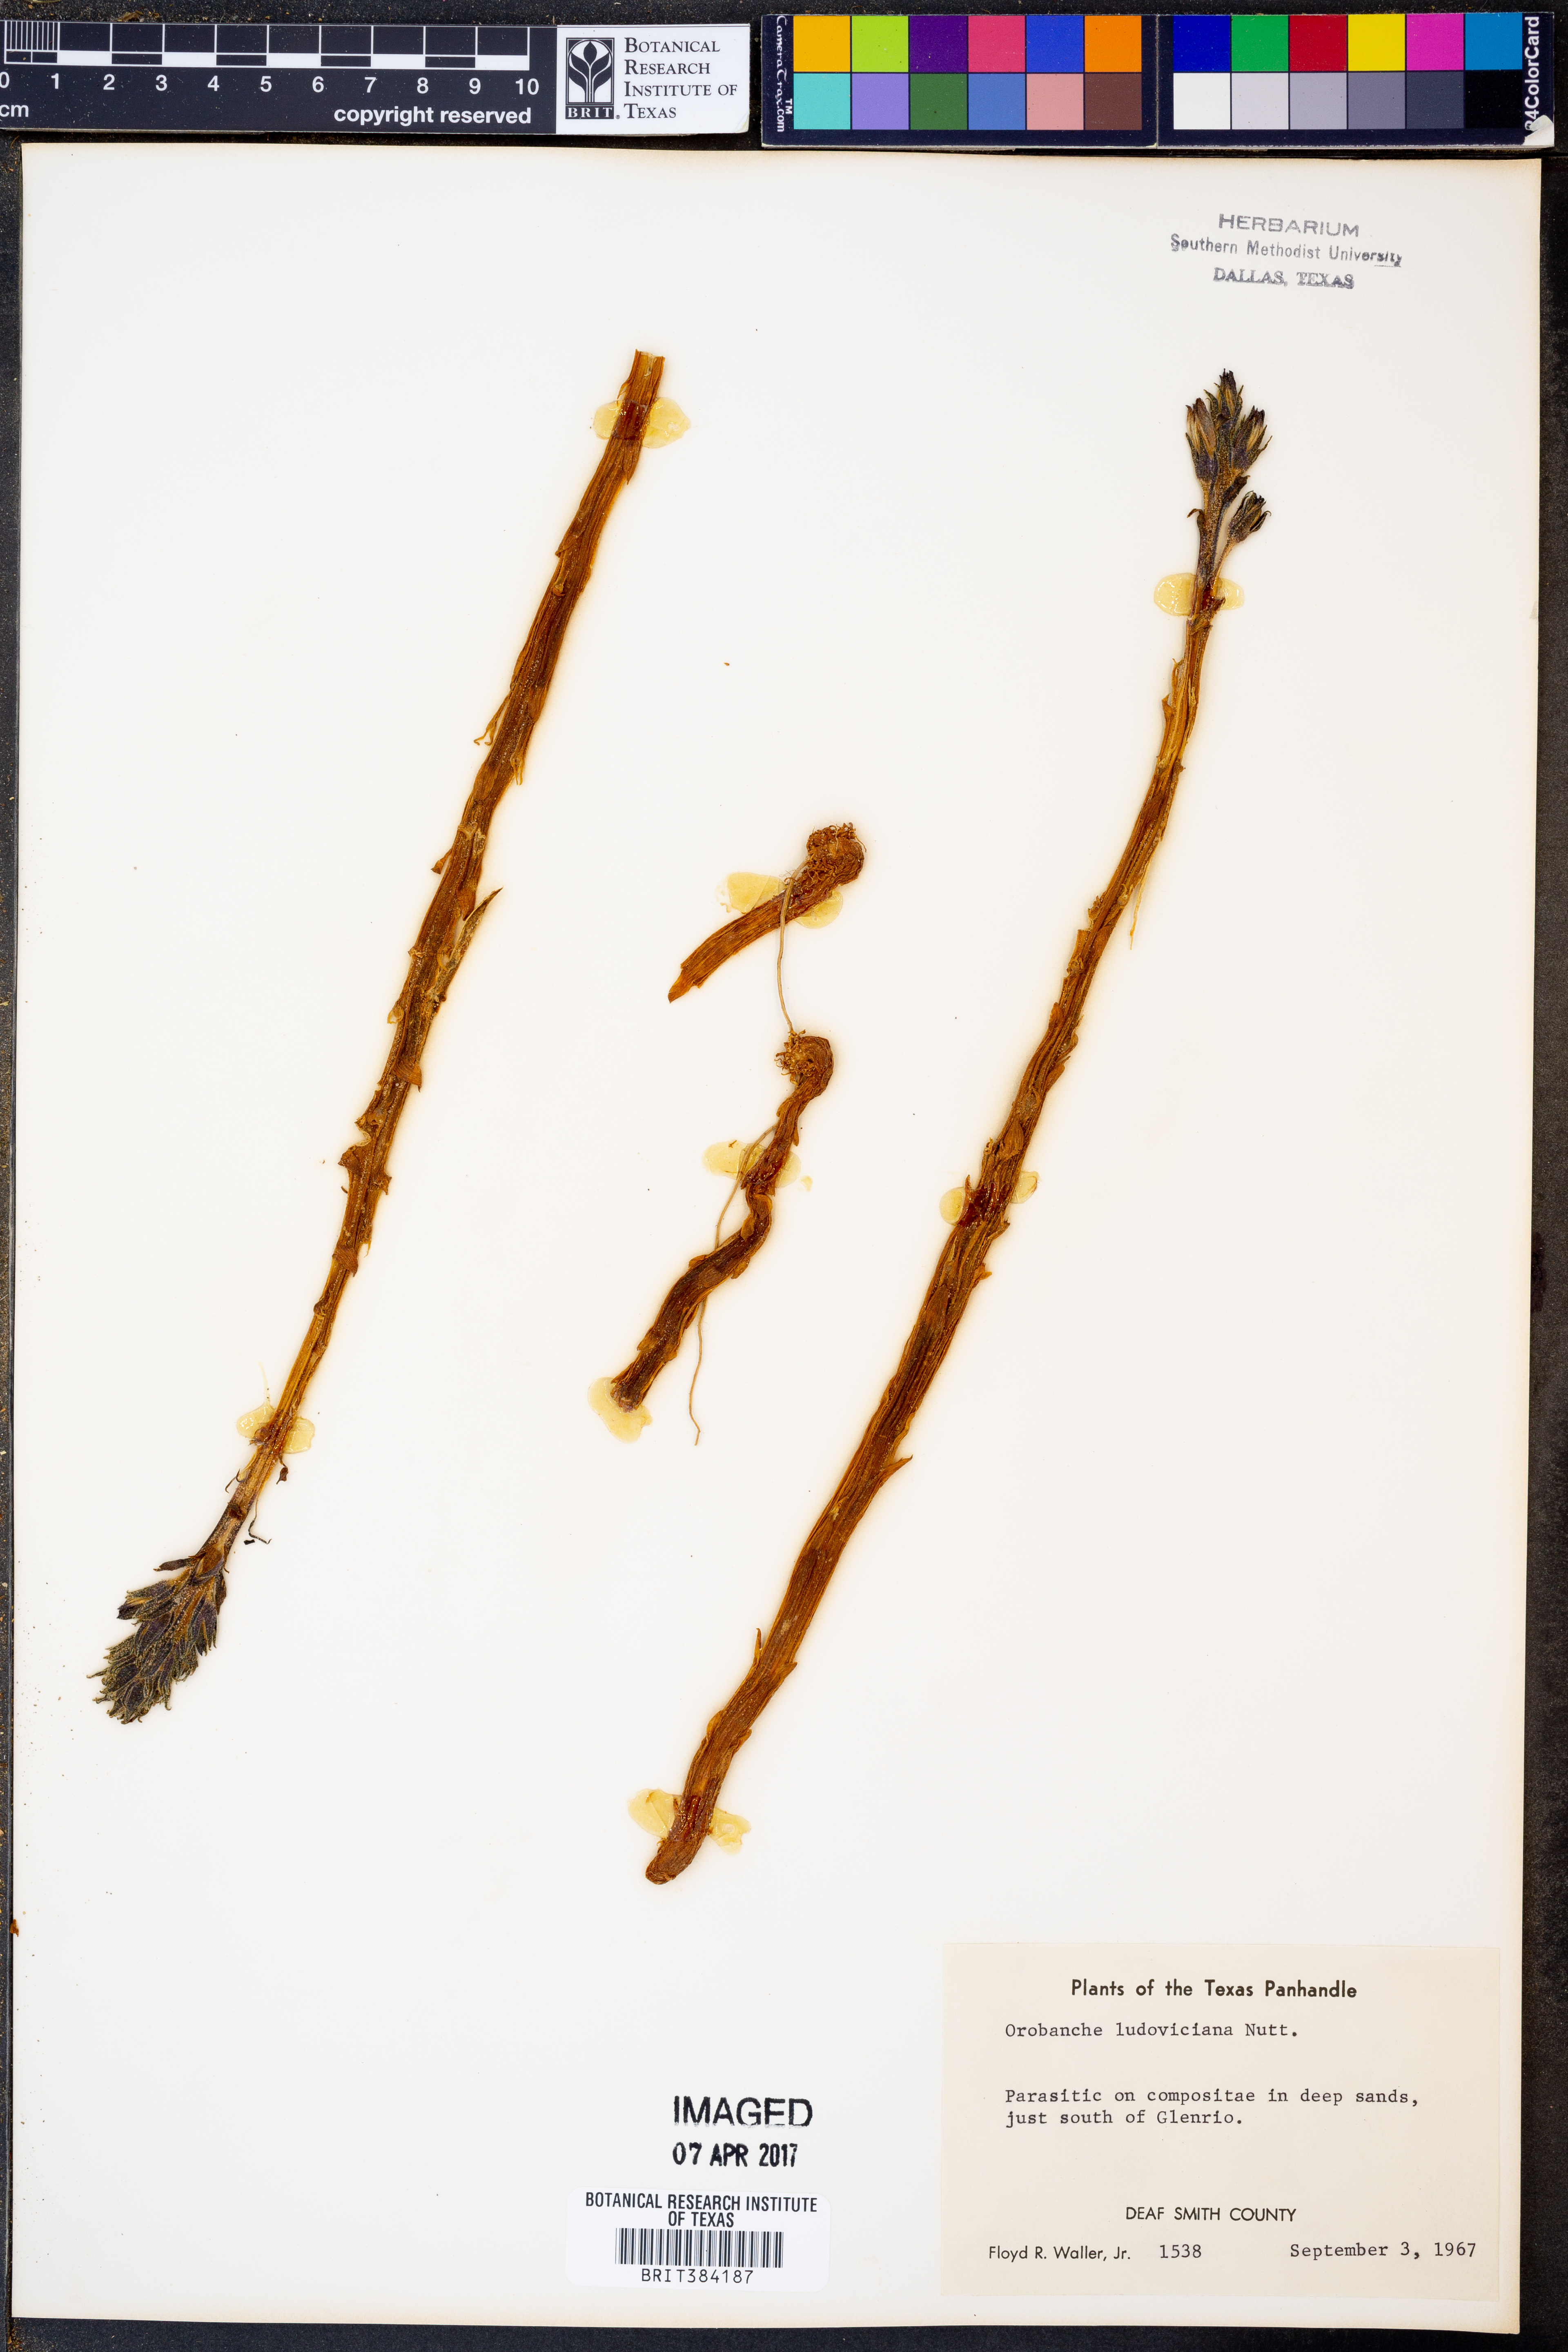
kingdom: Plantae
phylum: Tracheophyta
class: Magnoliopsida
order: Lamiales
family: Orobanchaceae
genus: Aphyllon
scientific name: Aphyllon ludovicianum
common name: Louisiana broomrape
